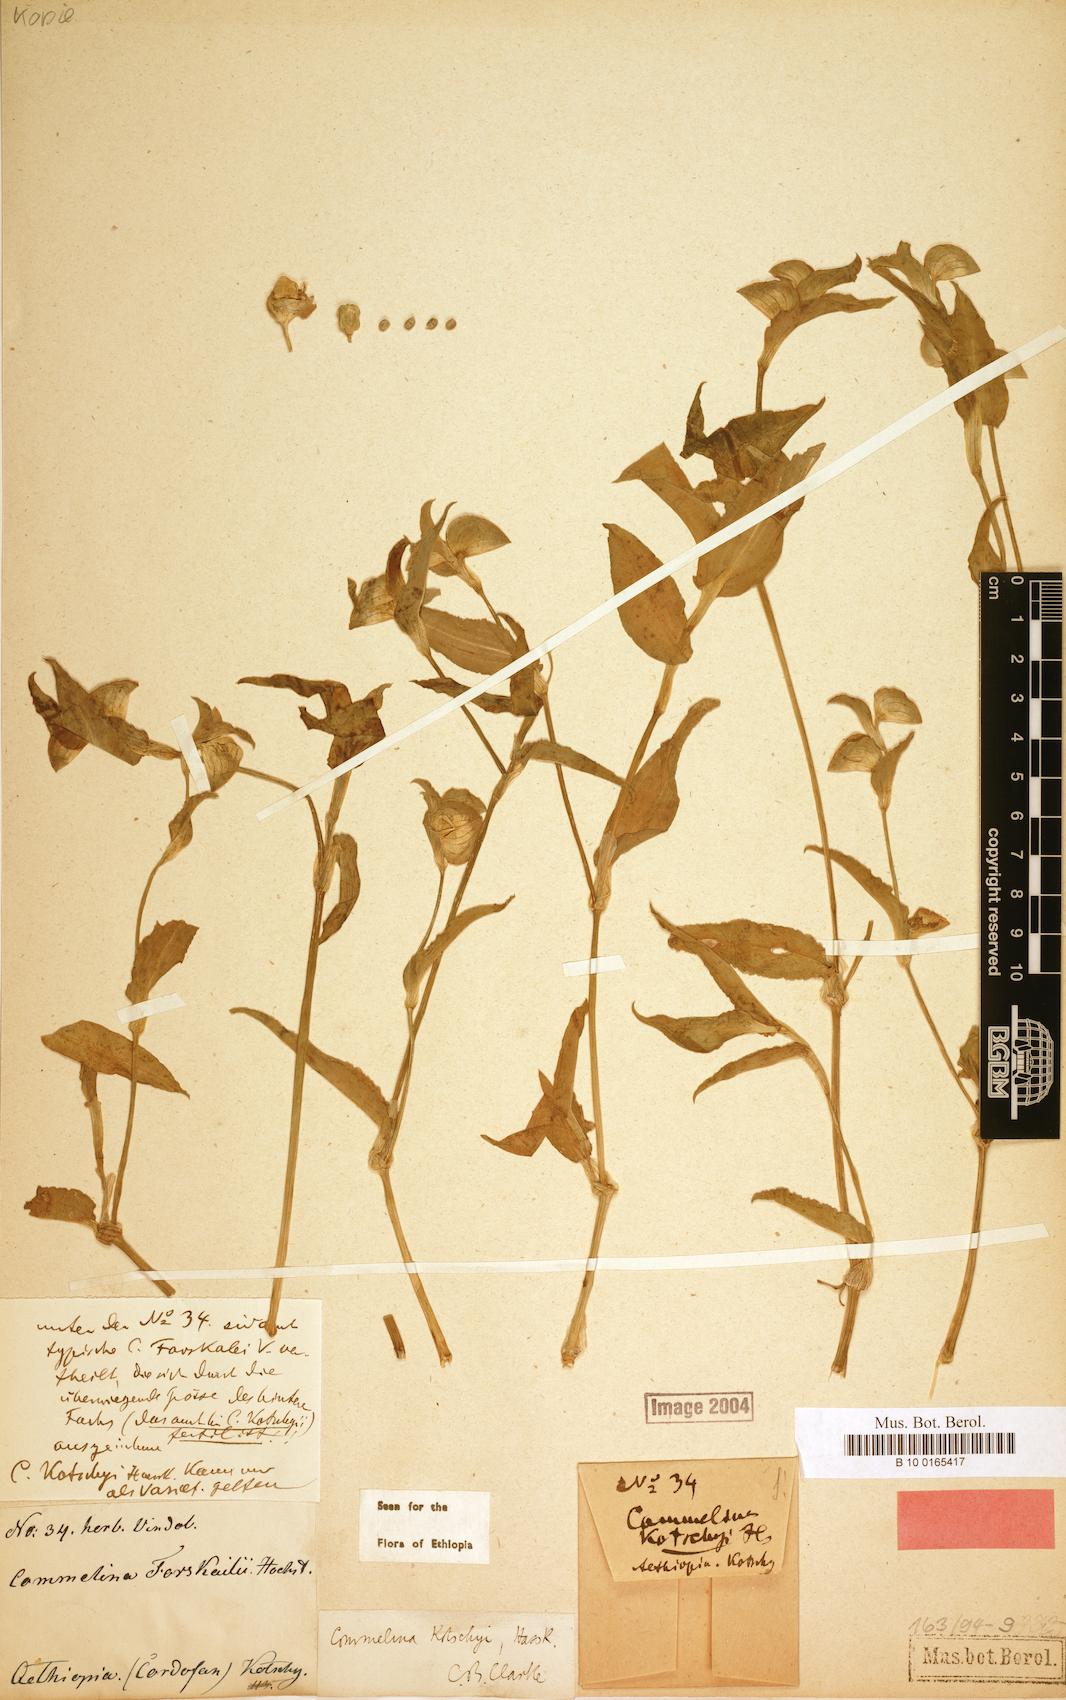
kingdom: Plantae
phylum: Tracheophyta
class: Liliopsida
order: Commelinales
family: Commelinaceae
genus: Commelina
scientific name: Commelina kotschyi
